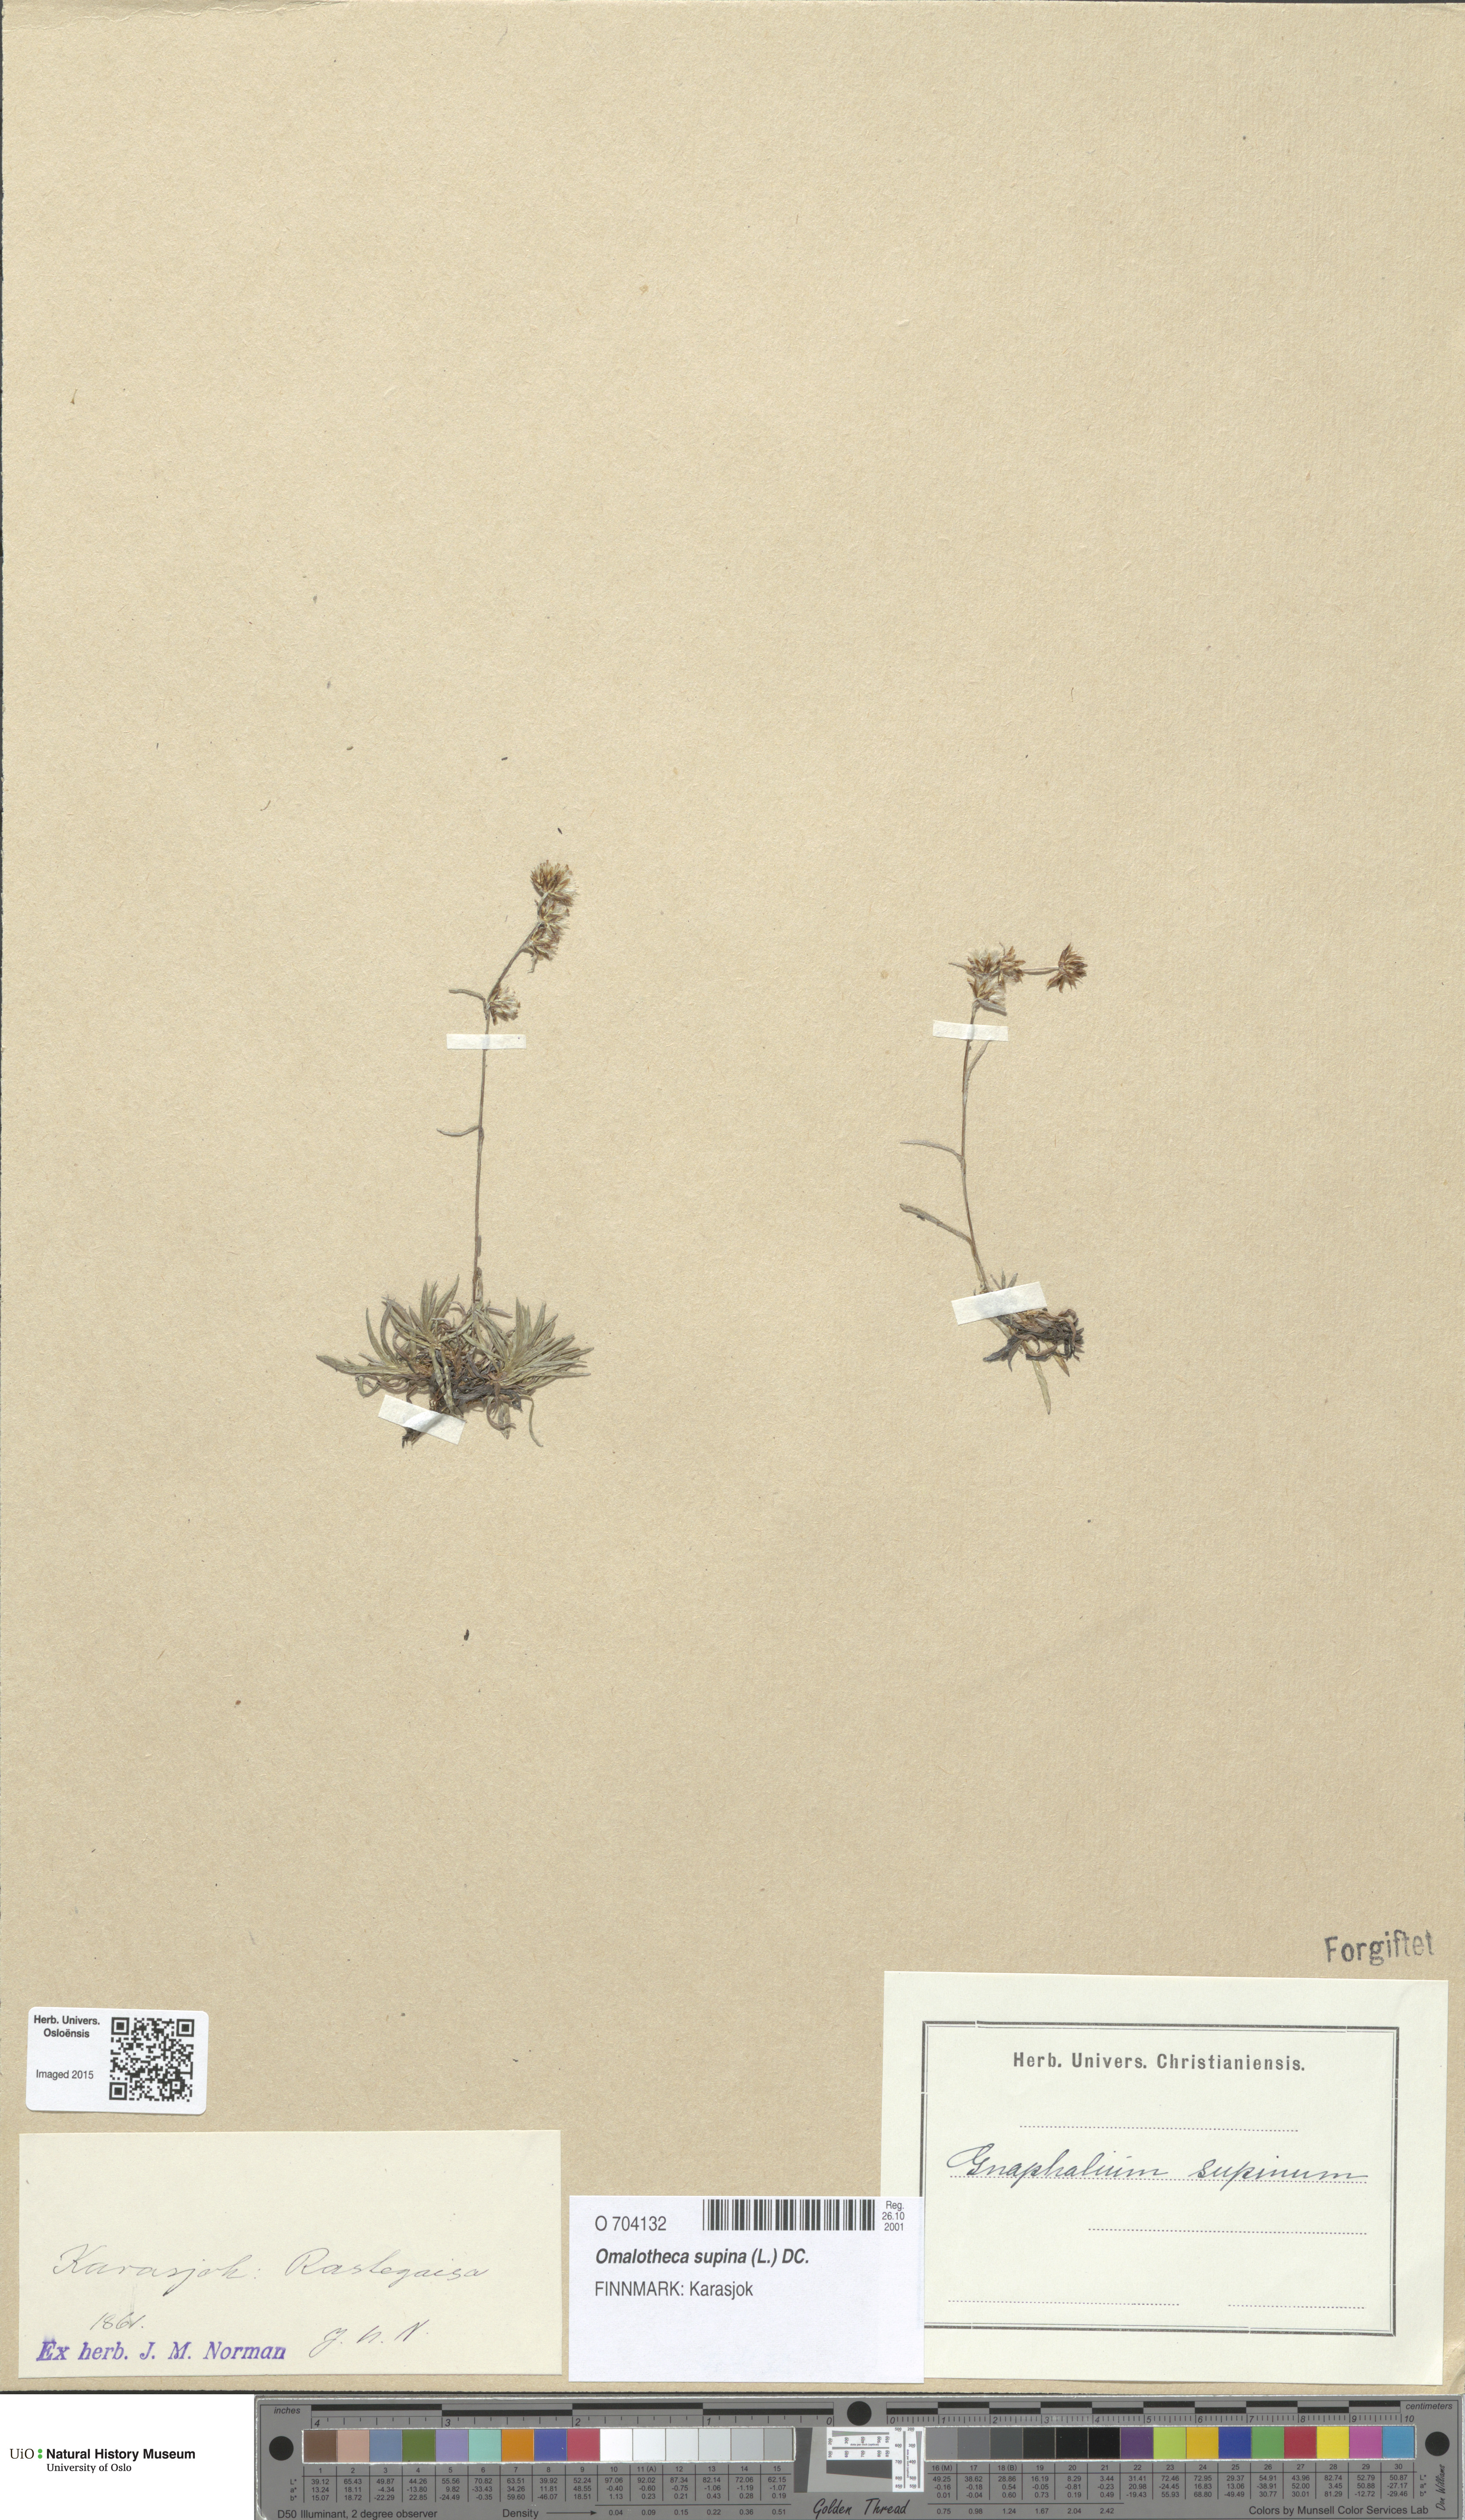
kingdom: Plantae
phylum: Tracheophyta
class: Magnoliopsida
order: Asterales
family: Asteraceae
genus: Omalotheca
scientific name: Omalotheca supina
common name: Alpine arctic-cudweed
